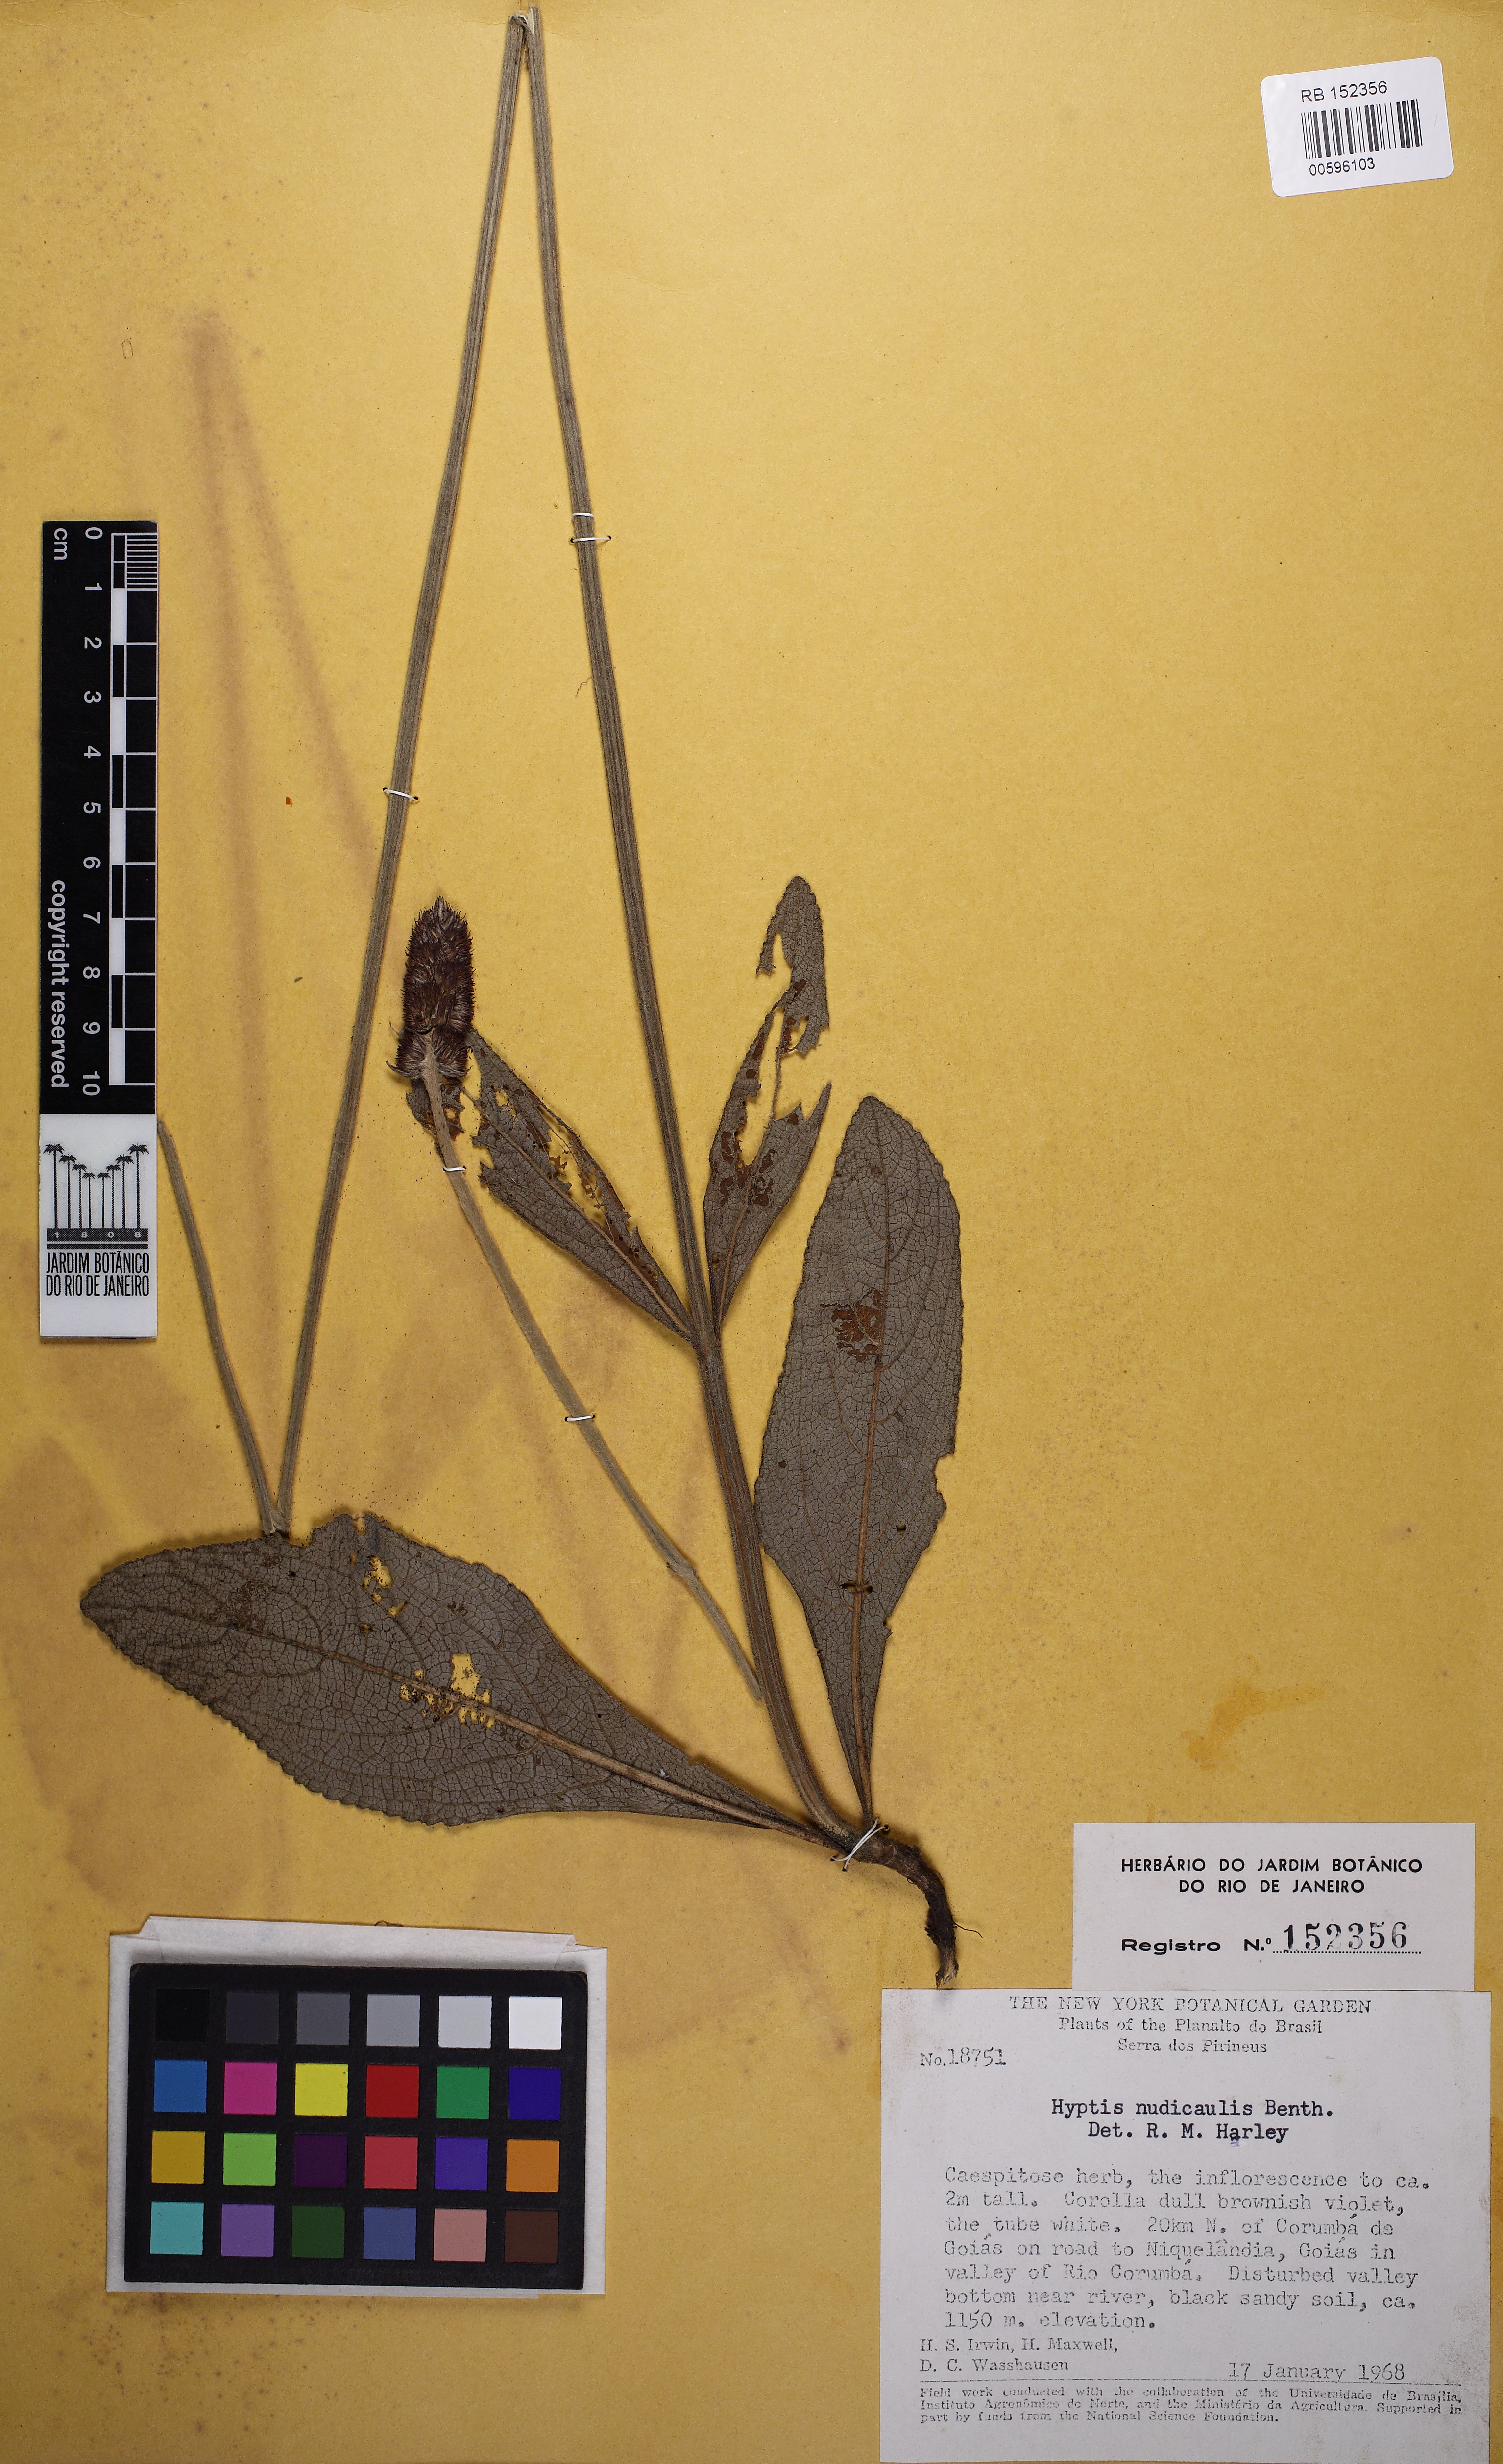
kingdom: Plantae
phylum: Tracheophyta
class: Magnoliopsida
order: Lamiales
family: Lamiaceae
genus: Hyptis
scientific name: Hyptis nudicaulis
